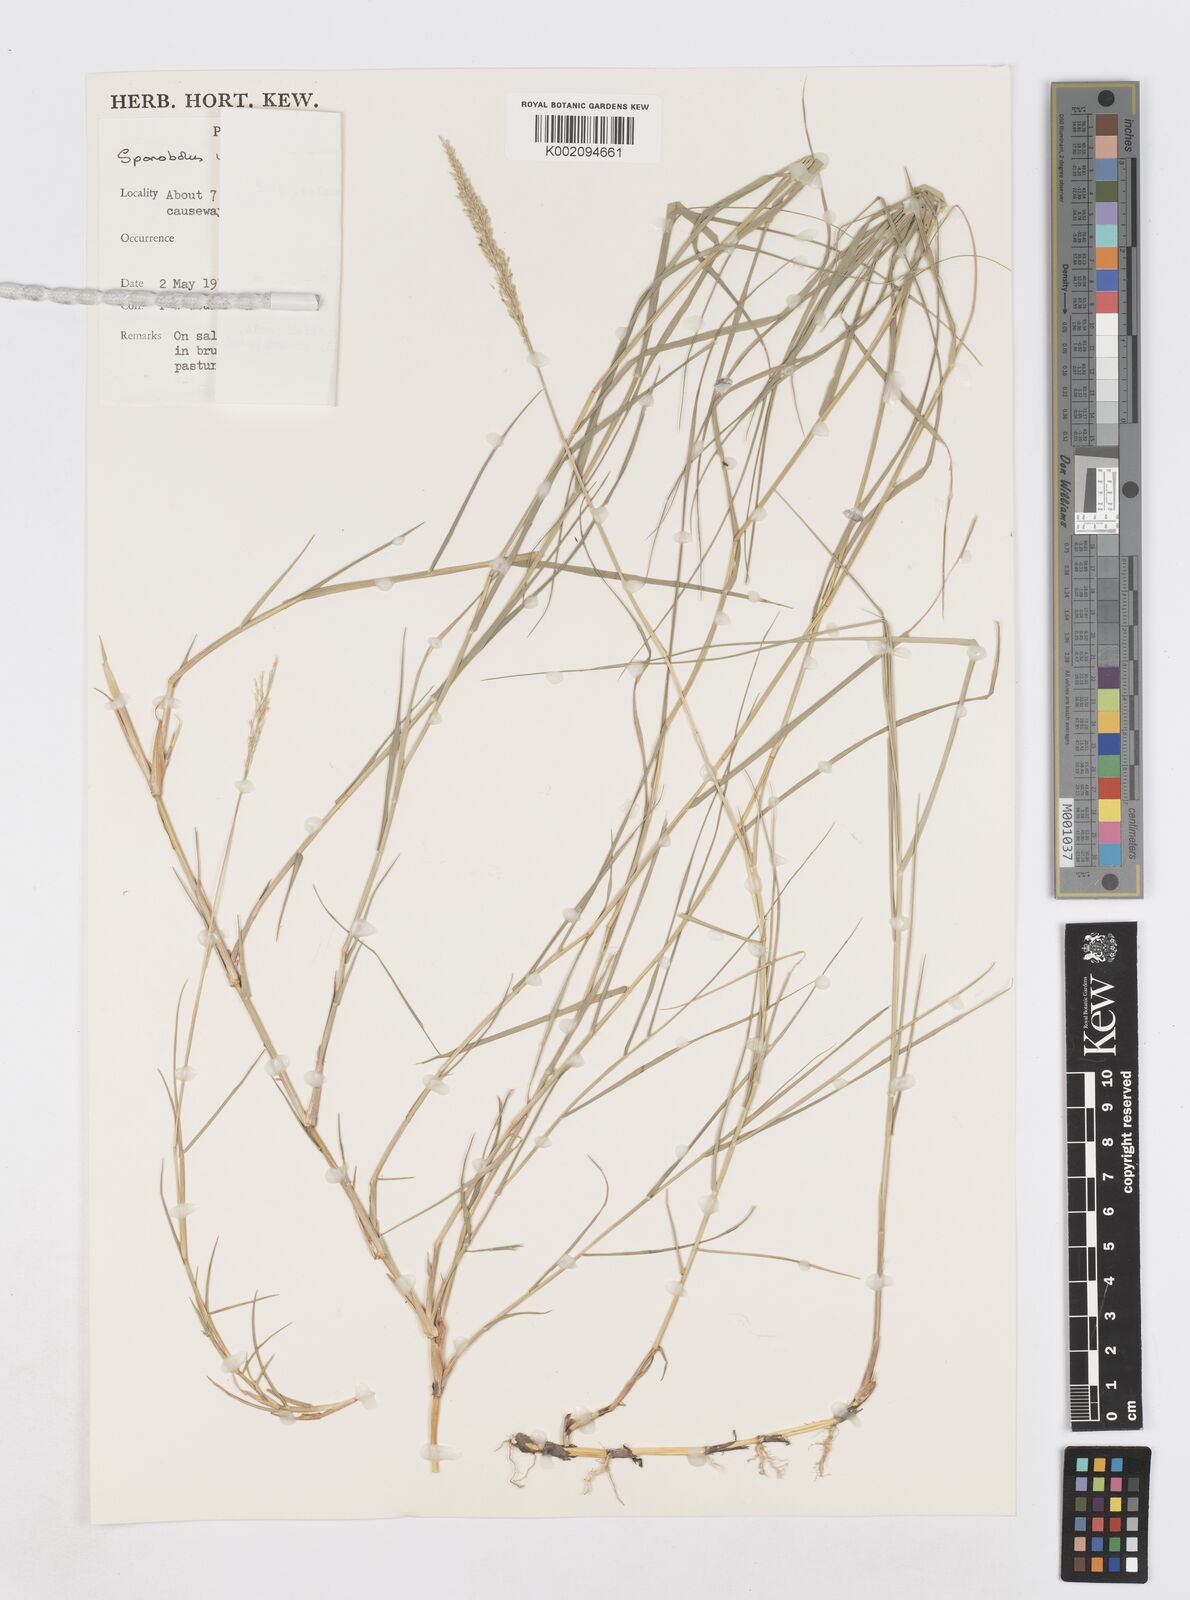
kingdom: Plantae
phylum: Tracheophyta
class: Liliopsida
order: Poales
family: Poaceae
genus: Sporobolus
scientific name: Sporobolus virginicus
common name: Beach dropseed
